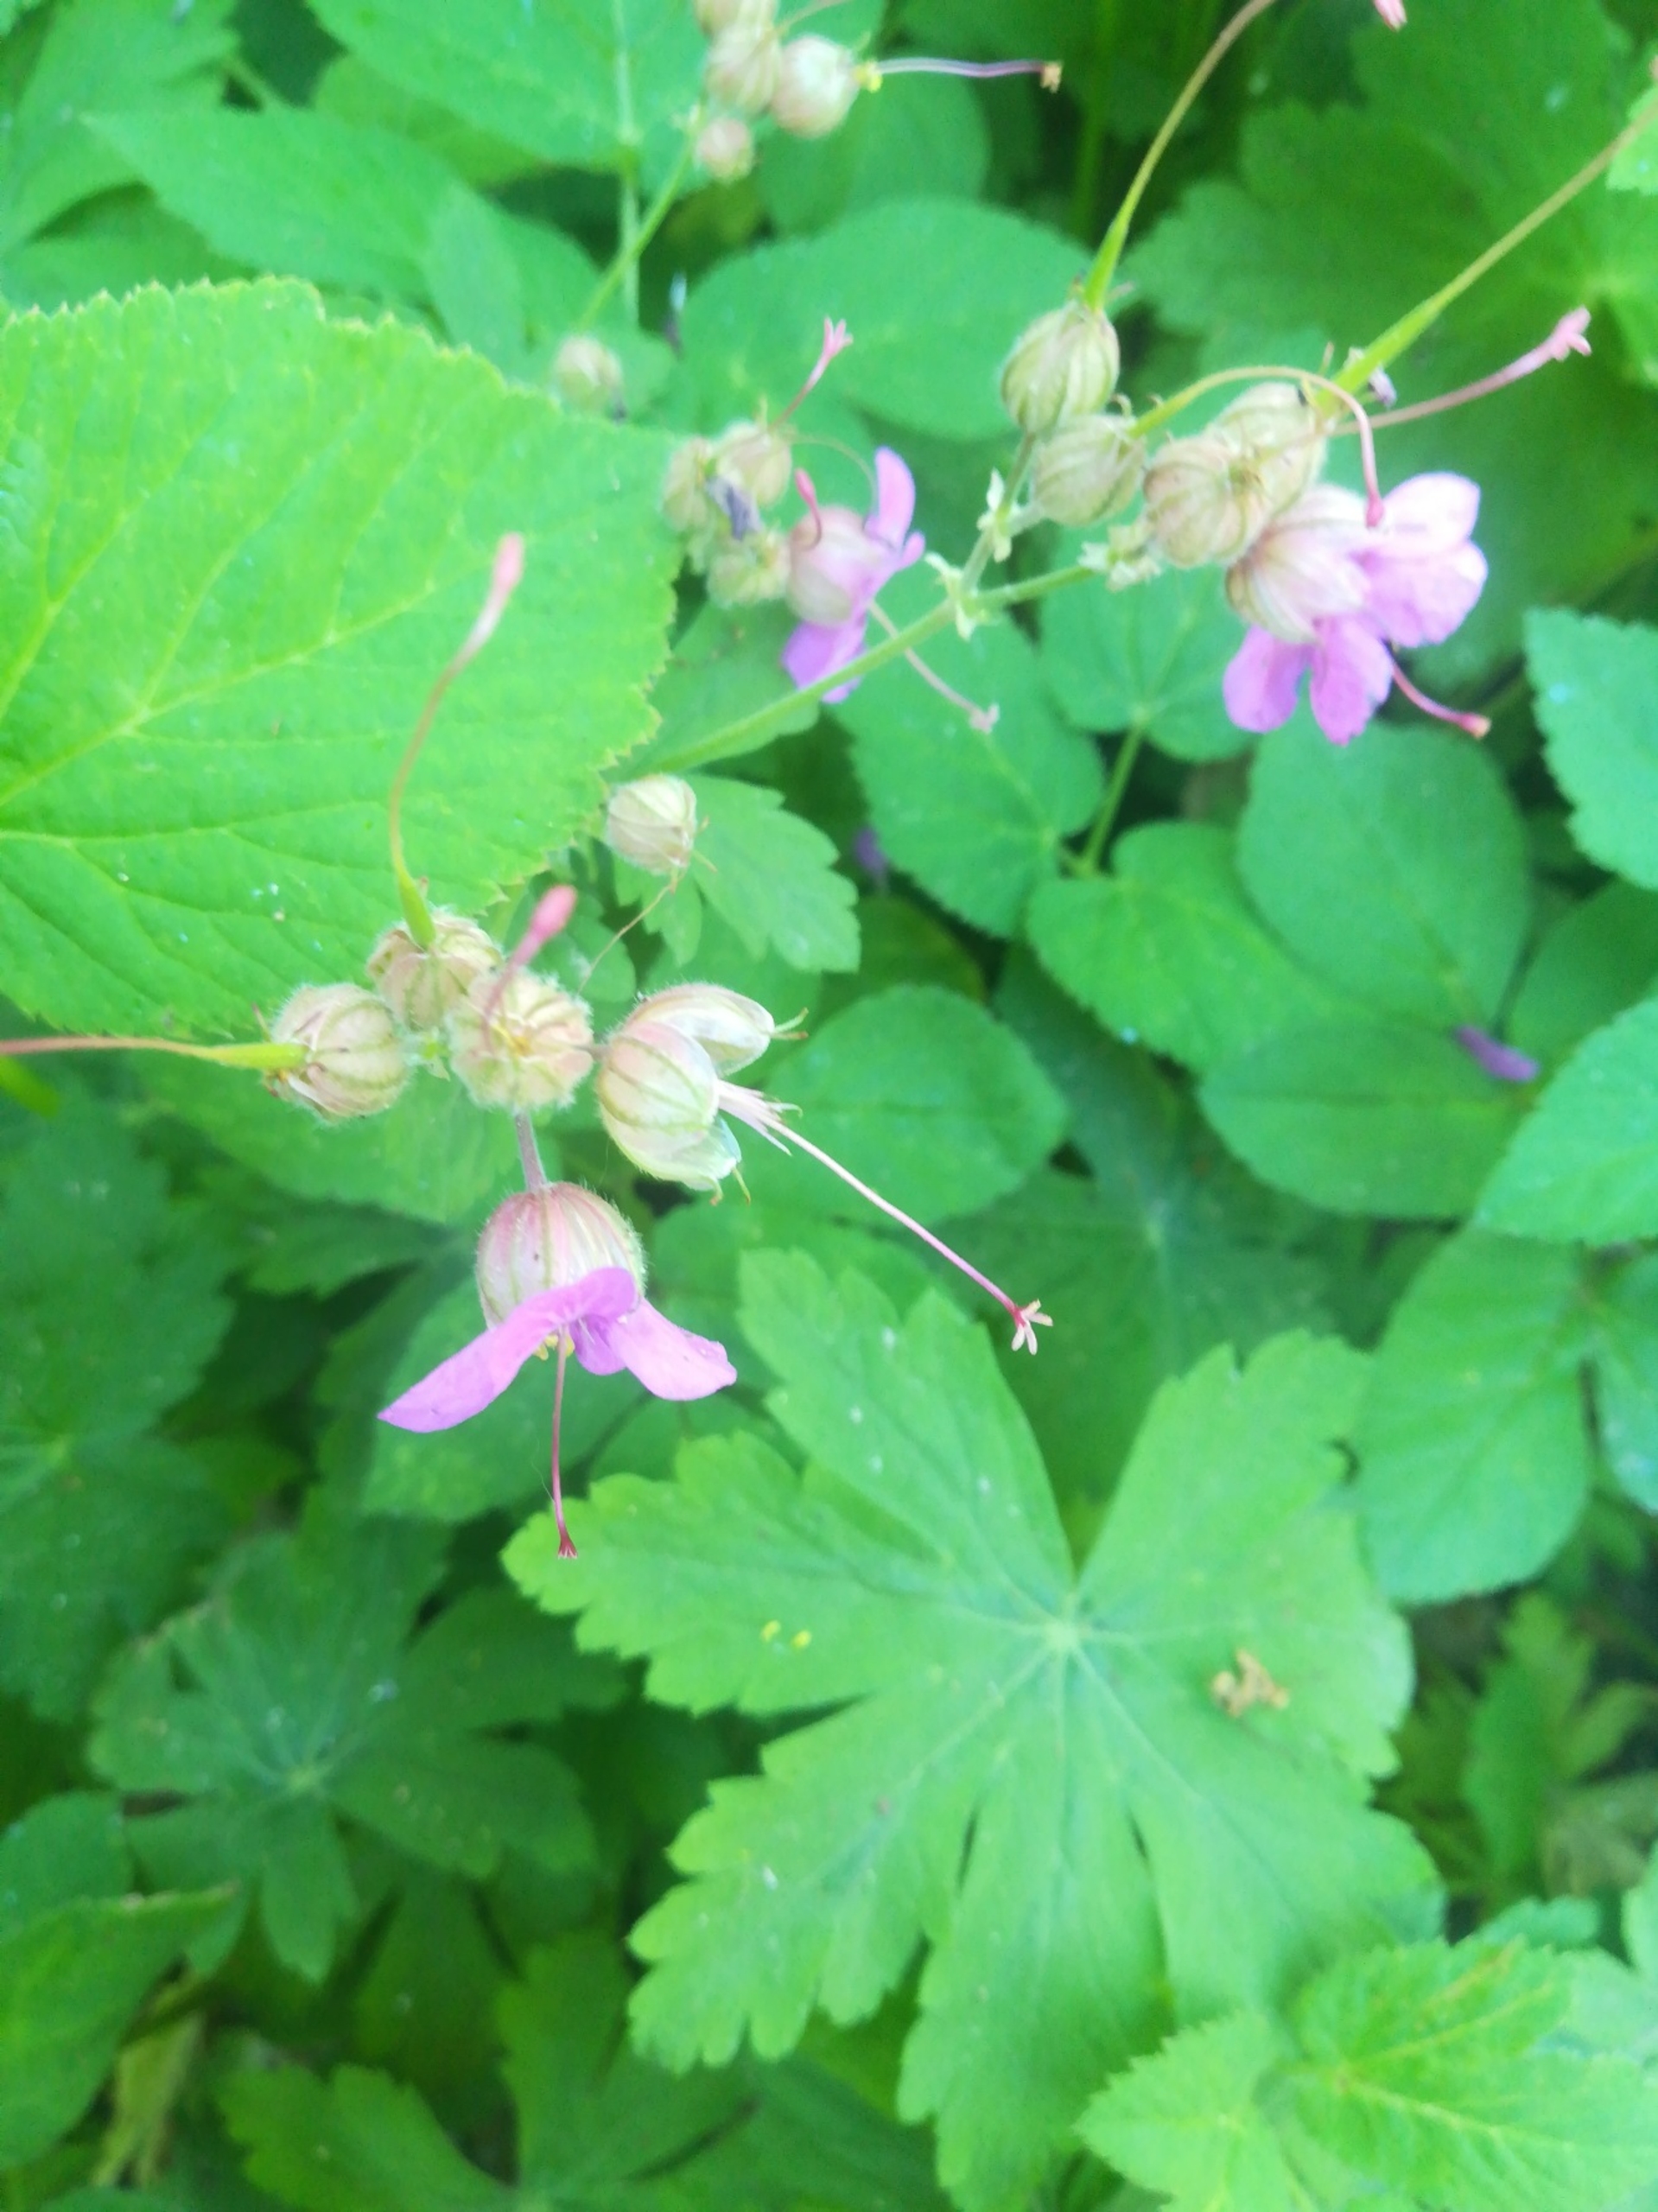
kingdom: Plantae
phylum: Tracheophyta
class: Magnoliopsida
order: Geraniales
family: Geraniaceae
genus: Geranium
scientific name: Geranium macrorrhizum
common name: Storrodet storkenæb
